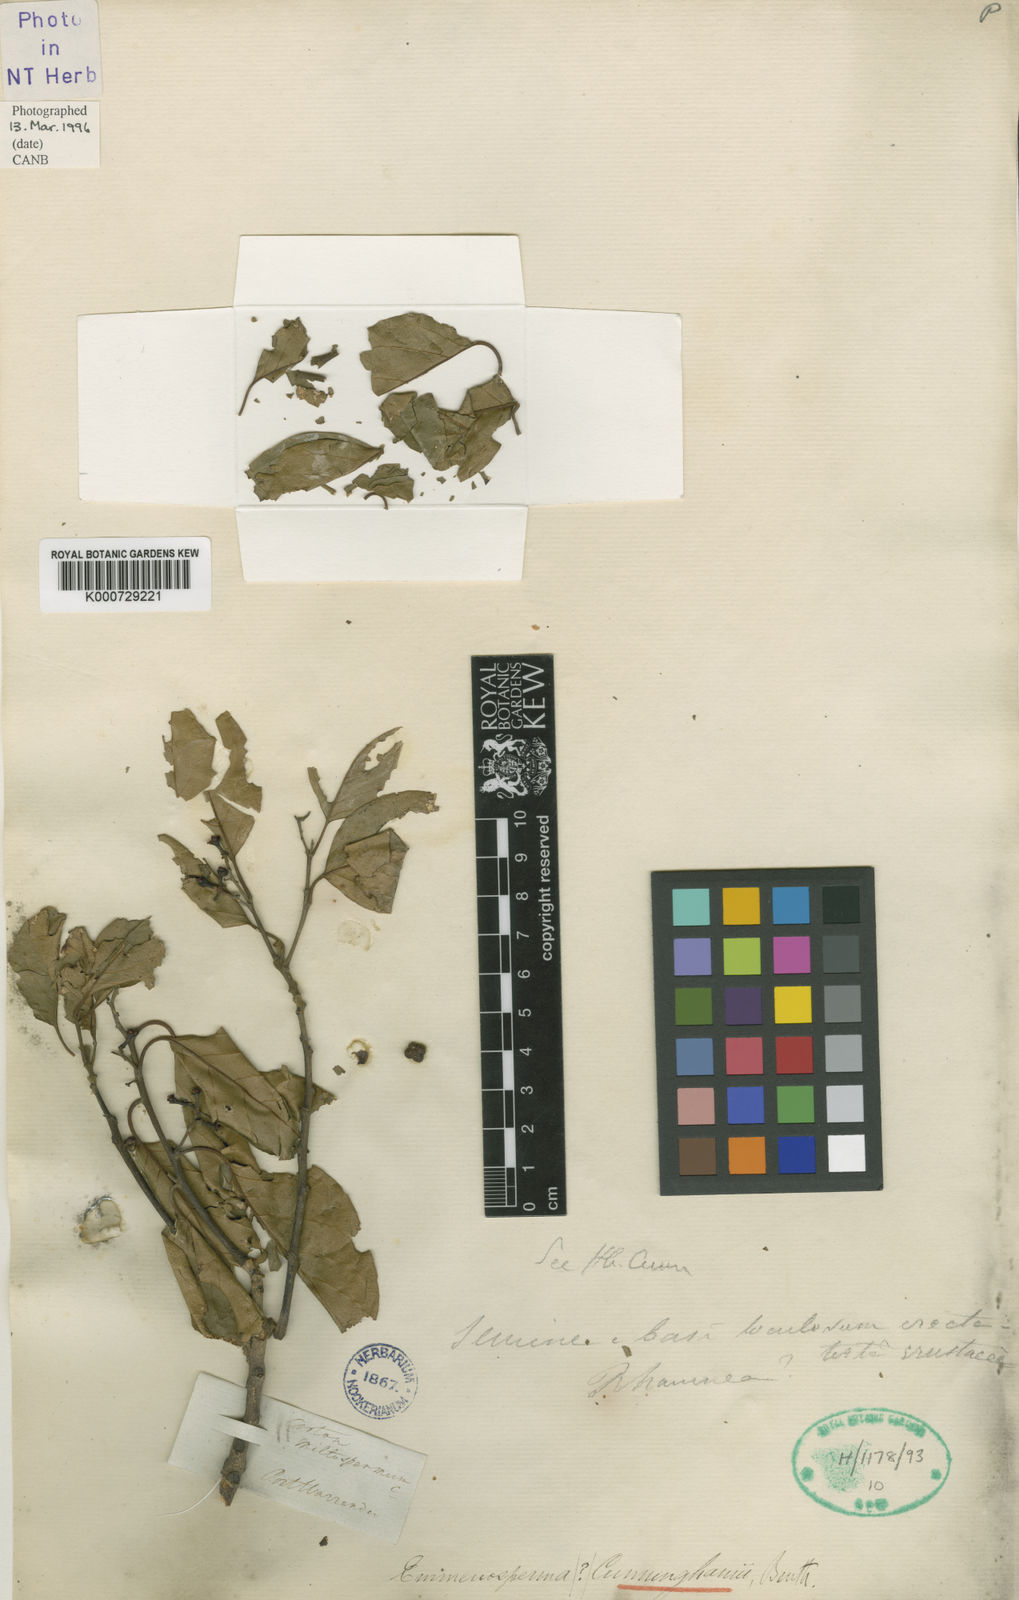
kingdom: Plantae
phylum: Tracheophyta
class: Magnoliopsida
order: Rosales
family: Rhamnaceae
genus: Emmenosperma
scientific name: Emmenosperma cunninghamii
